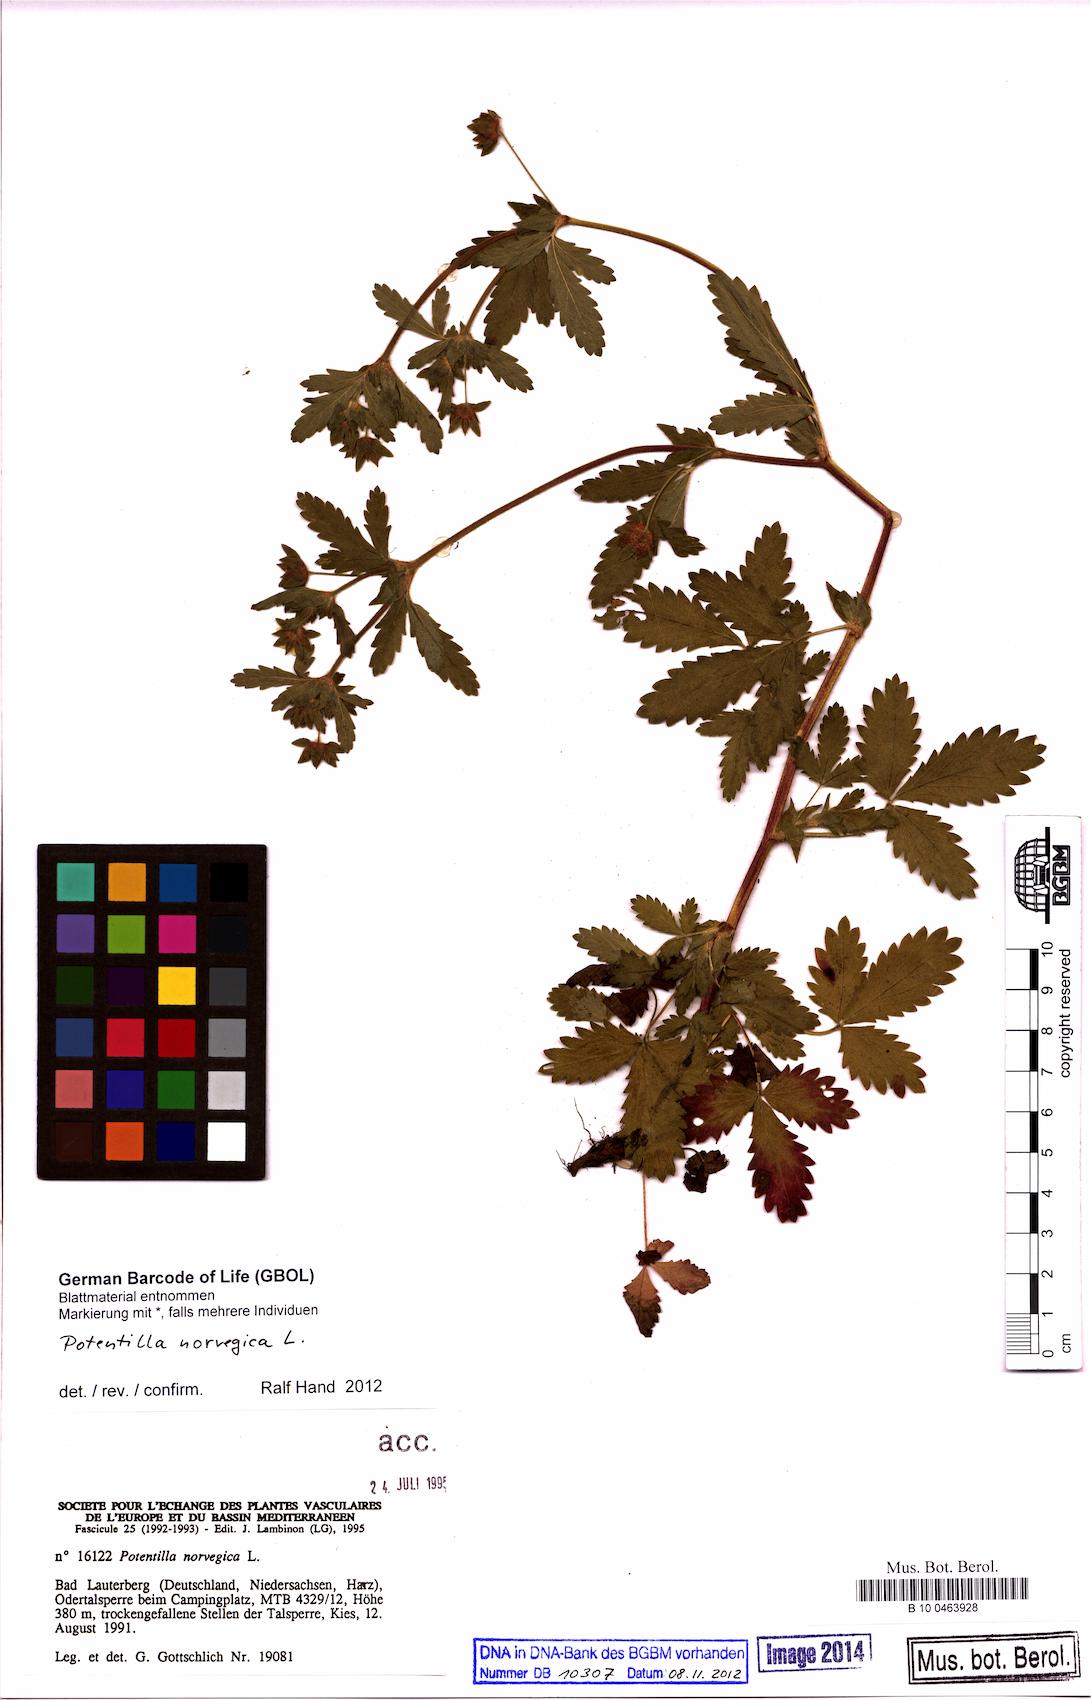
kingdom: Plantae
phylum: Tracheophyta
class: Magnoliopsida
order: Rosales
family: Rosaceae
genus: Potentilla
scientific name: Potentilla norvegica
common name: Ternate-leaved cinquefoil
